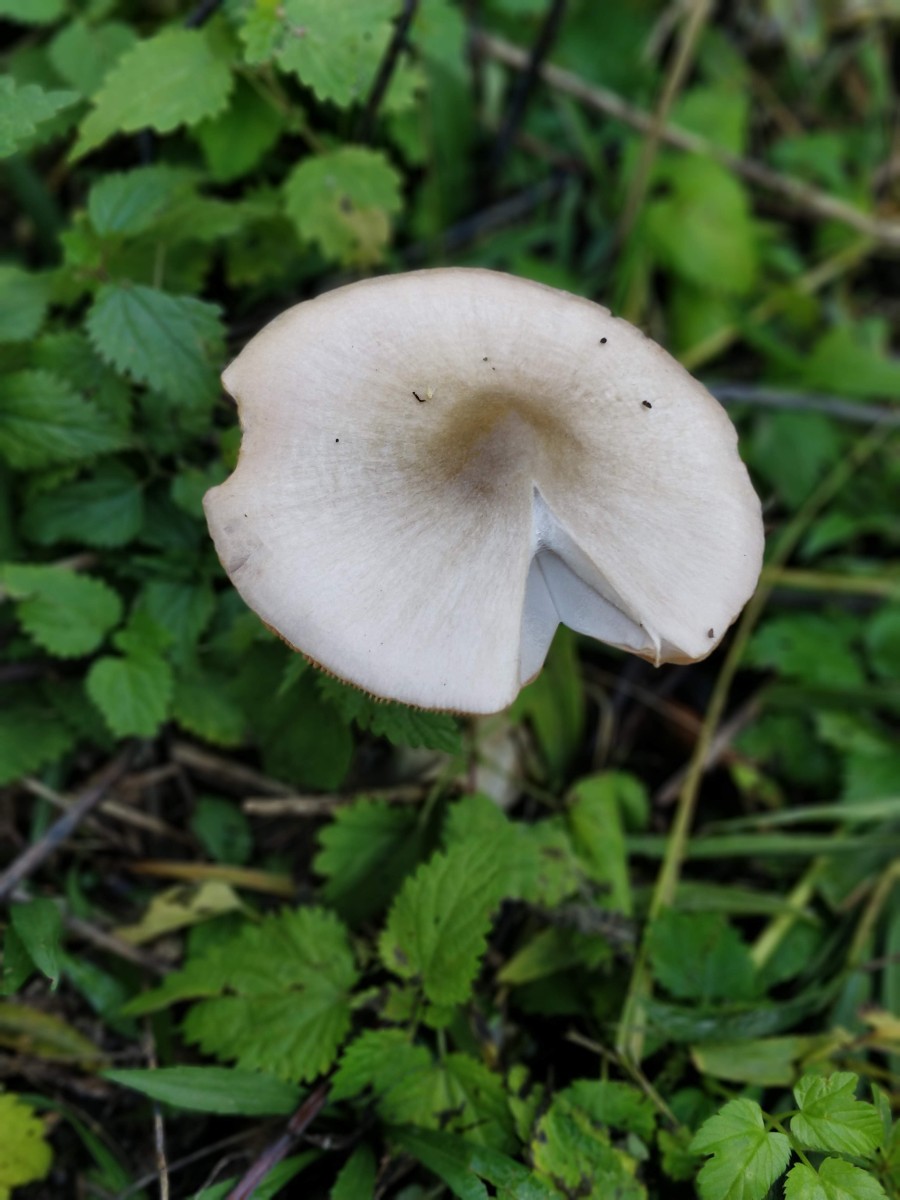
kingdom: Fungi
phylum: Basidiomycota
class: Agaricomycetes
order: Agaricales
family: Pluteaceae
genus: Volvopluteus
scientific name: Volvopluteus gloiocephalus
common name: høj posesvamp
